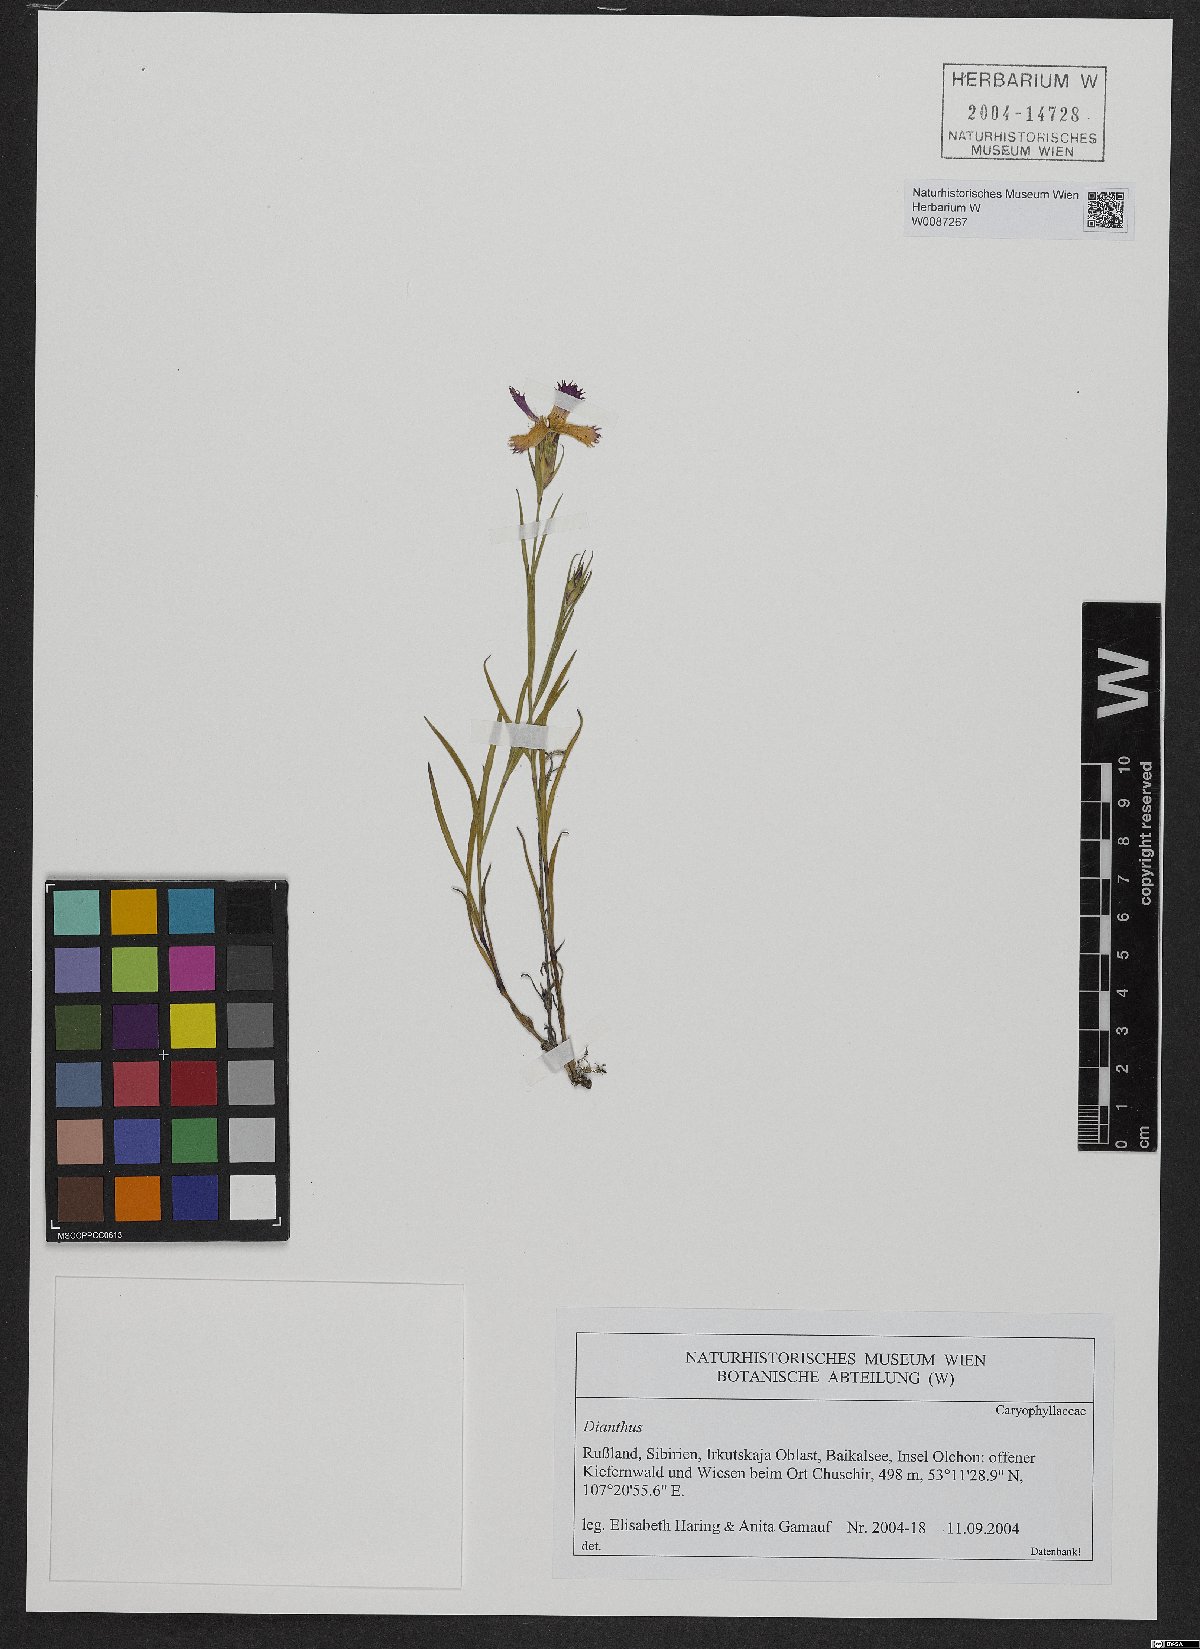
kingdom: Plantae
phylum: Tracheophyta
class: Magnoliopsida
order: Caryophyllales
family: Caryophyllaceae
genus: Dianthus
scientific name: Dianthus
